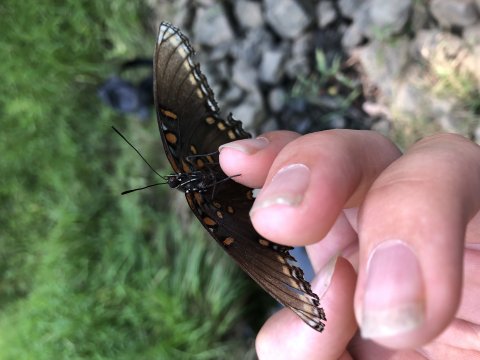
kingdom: Animalia
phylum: Arthropoda
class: Insecta
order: Lepidoptera
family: Nymphalidae
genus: Limenitis
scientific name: Limenitis arthemis
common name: Red-spotted Admiral
